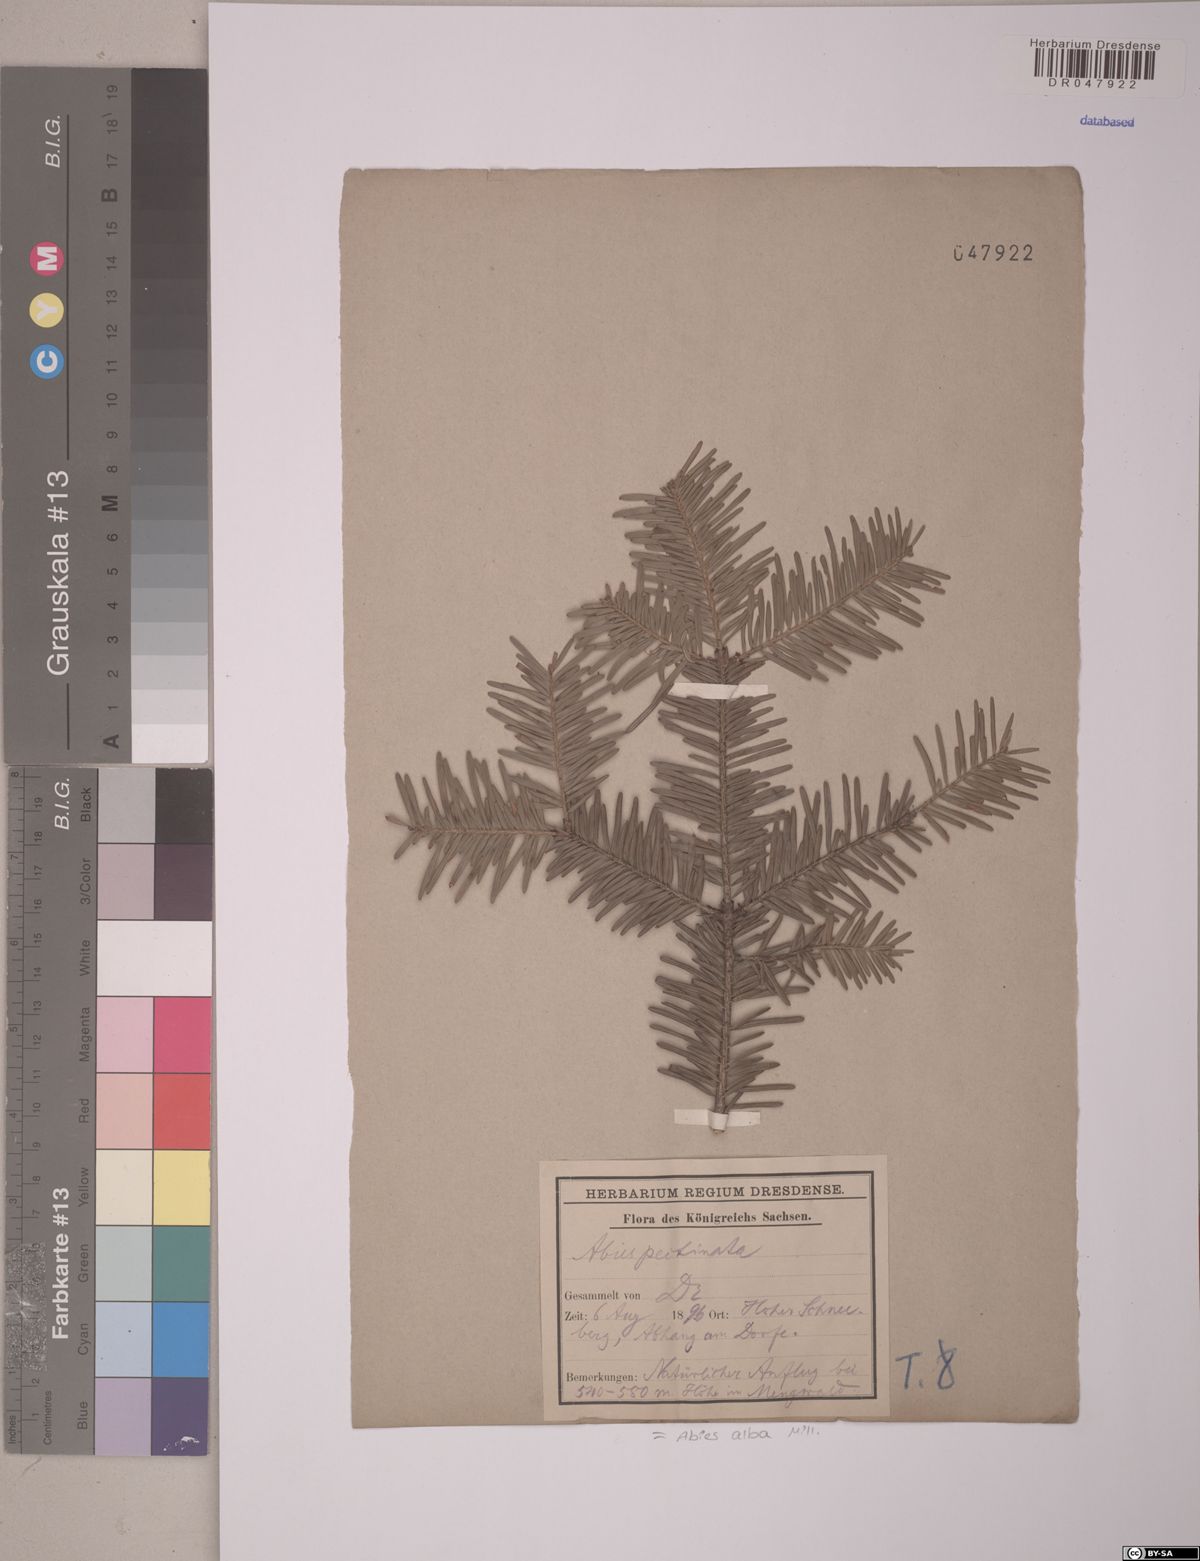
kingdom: Plantae
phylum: Tracheophyta
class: Pinopsida
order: Pinales
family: Pinaceae
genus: Abies
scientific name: Abies alba
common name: Silver fir
